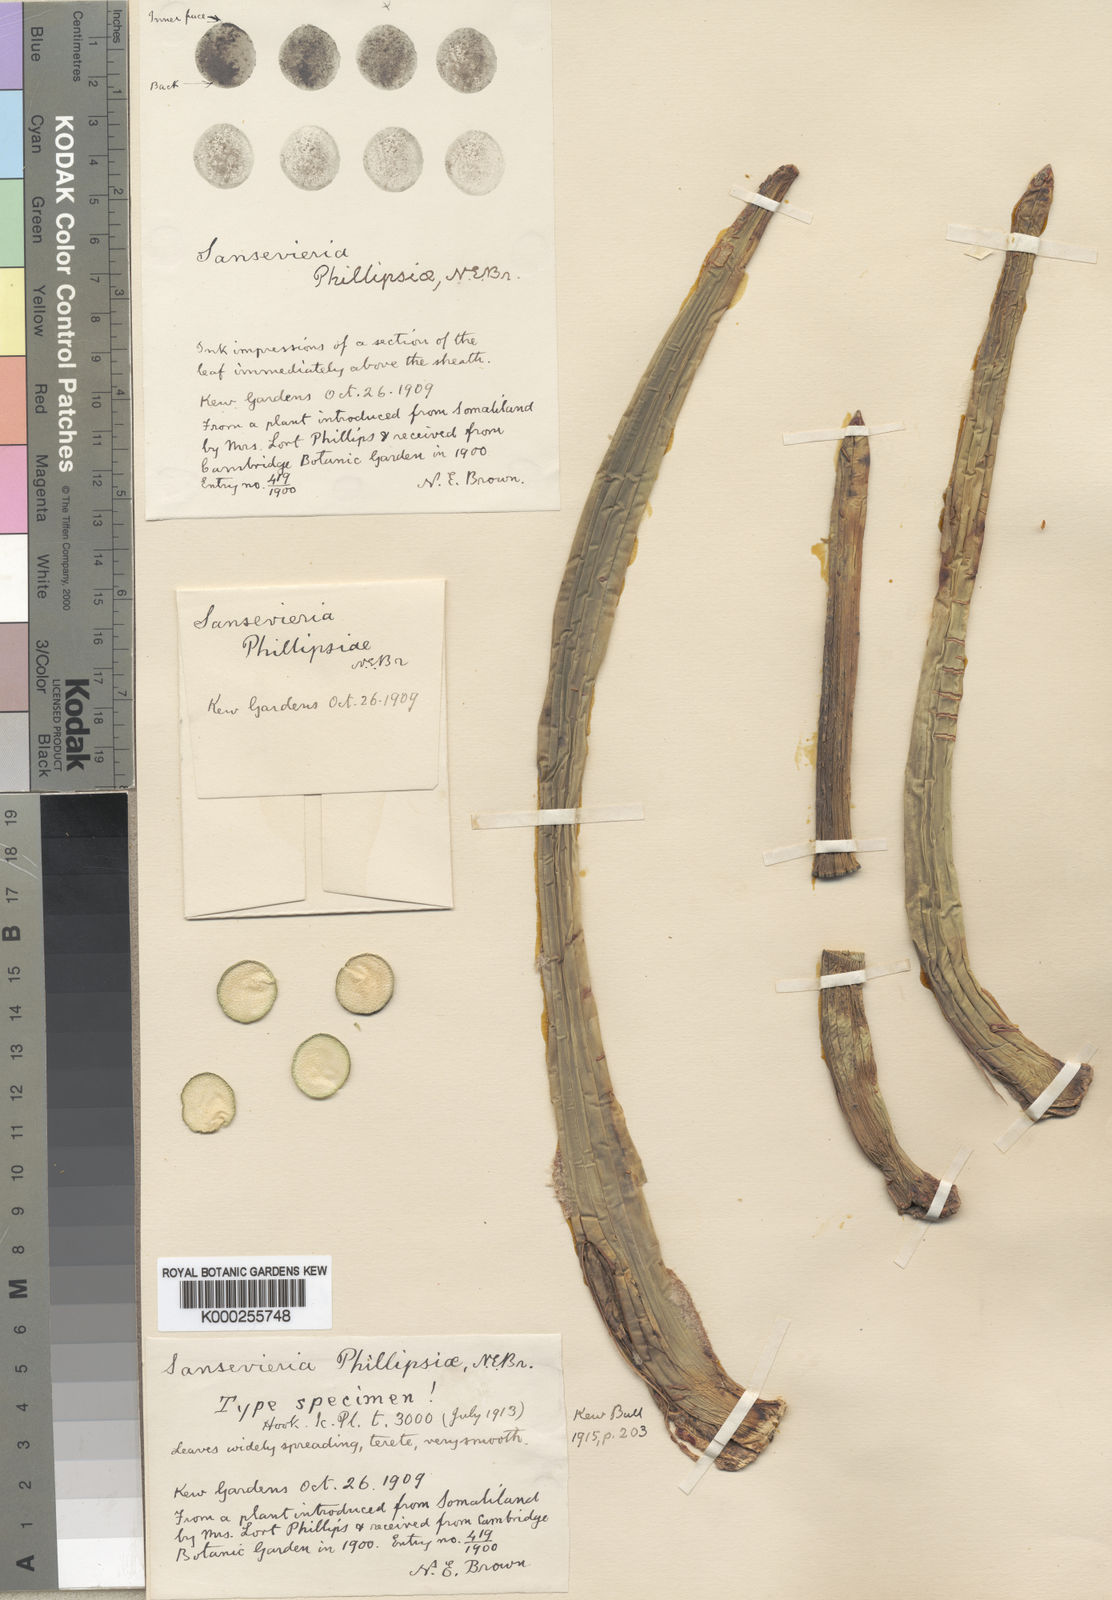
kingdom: Plantae
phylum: Tracheophyta
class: Liliopsida
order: Asparagales
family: Asparagaceae
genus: Dracaena
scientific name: Dracaena phillipsiae
